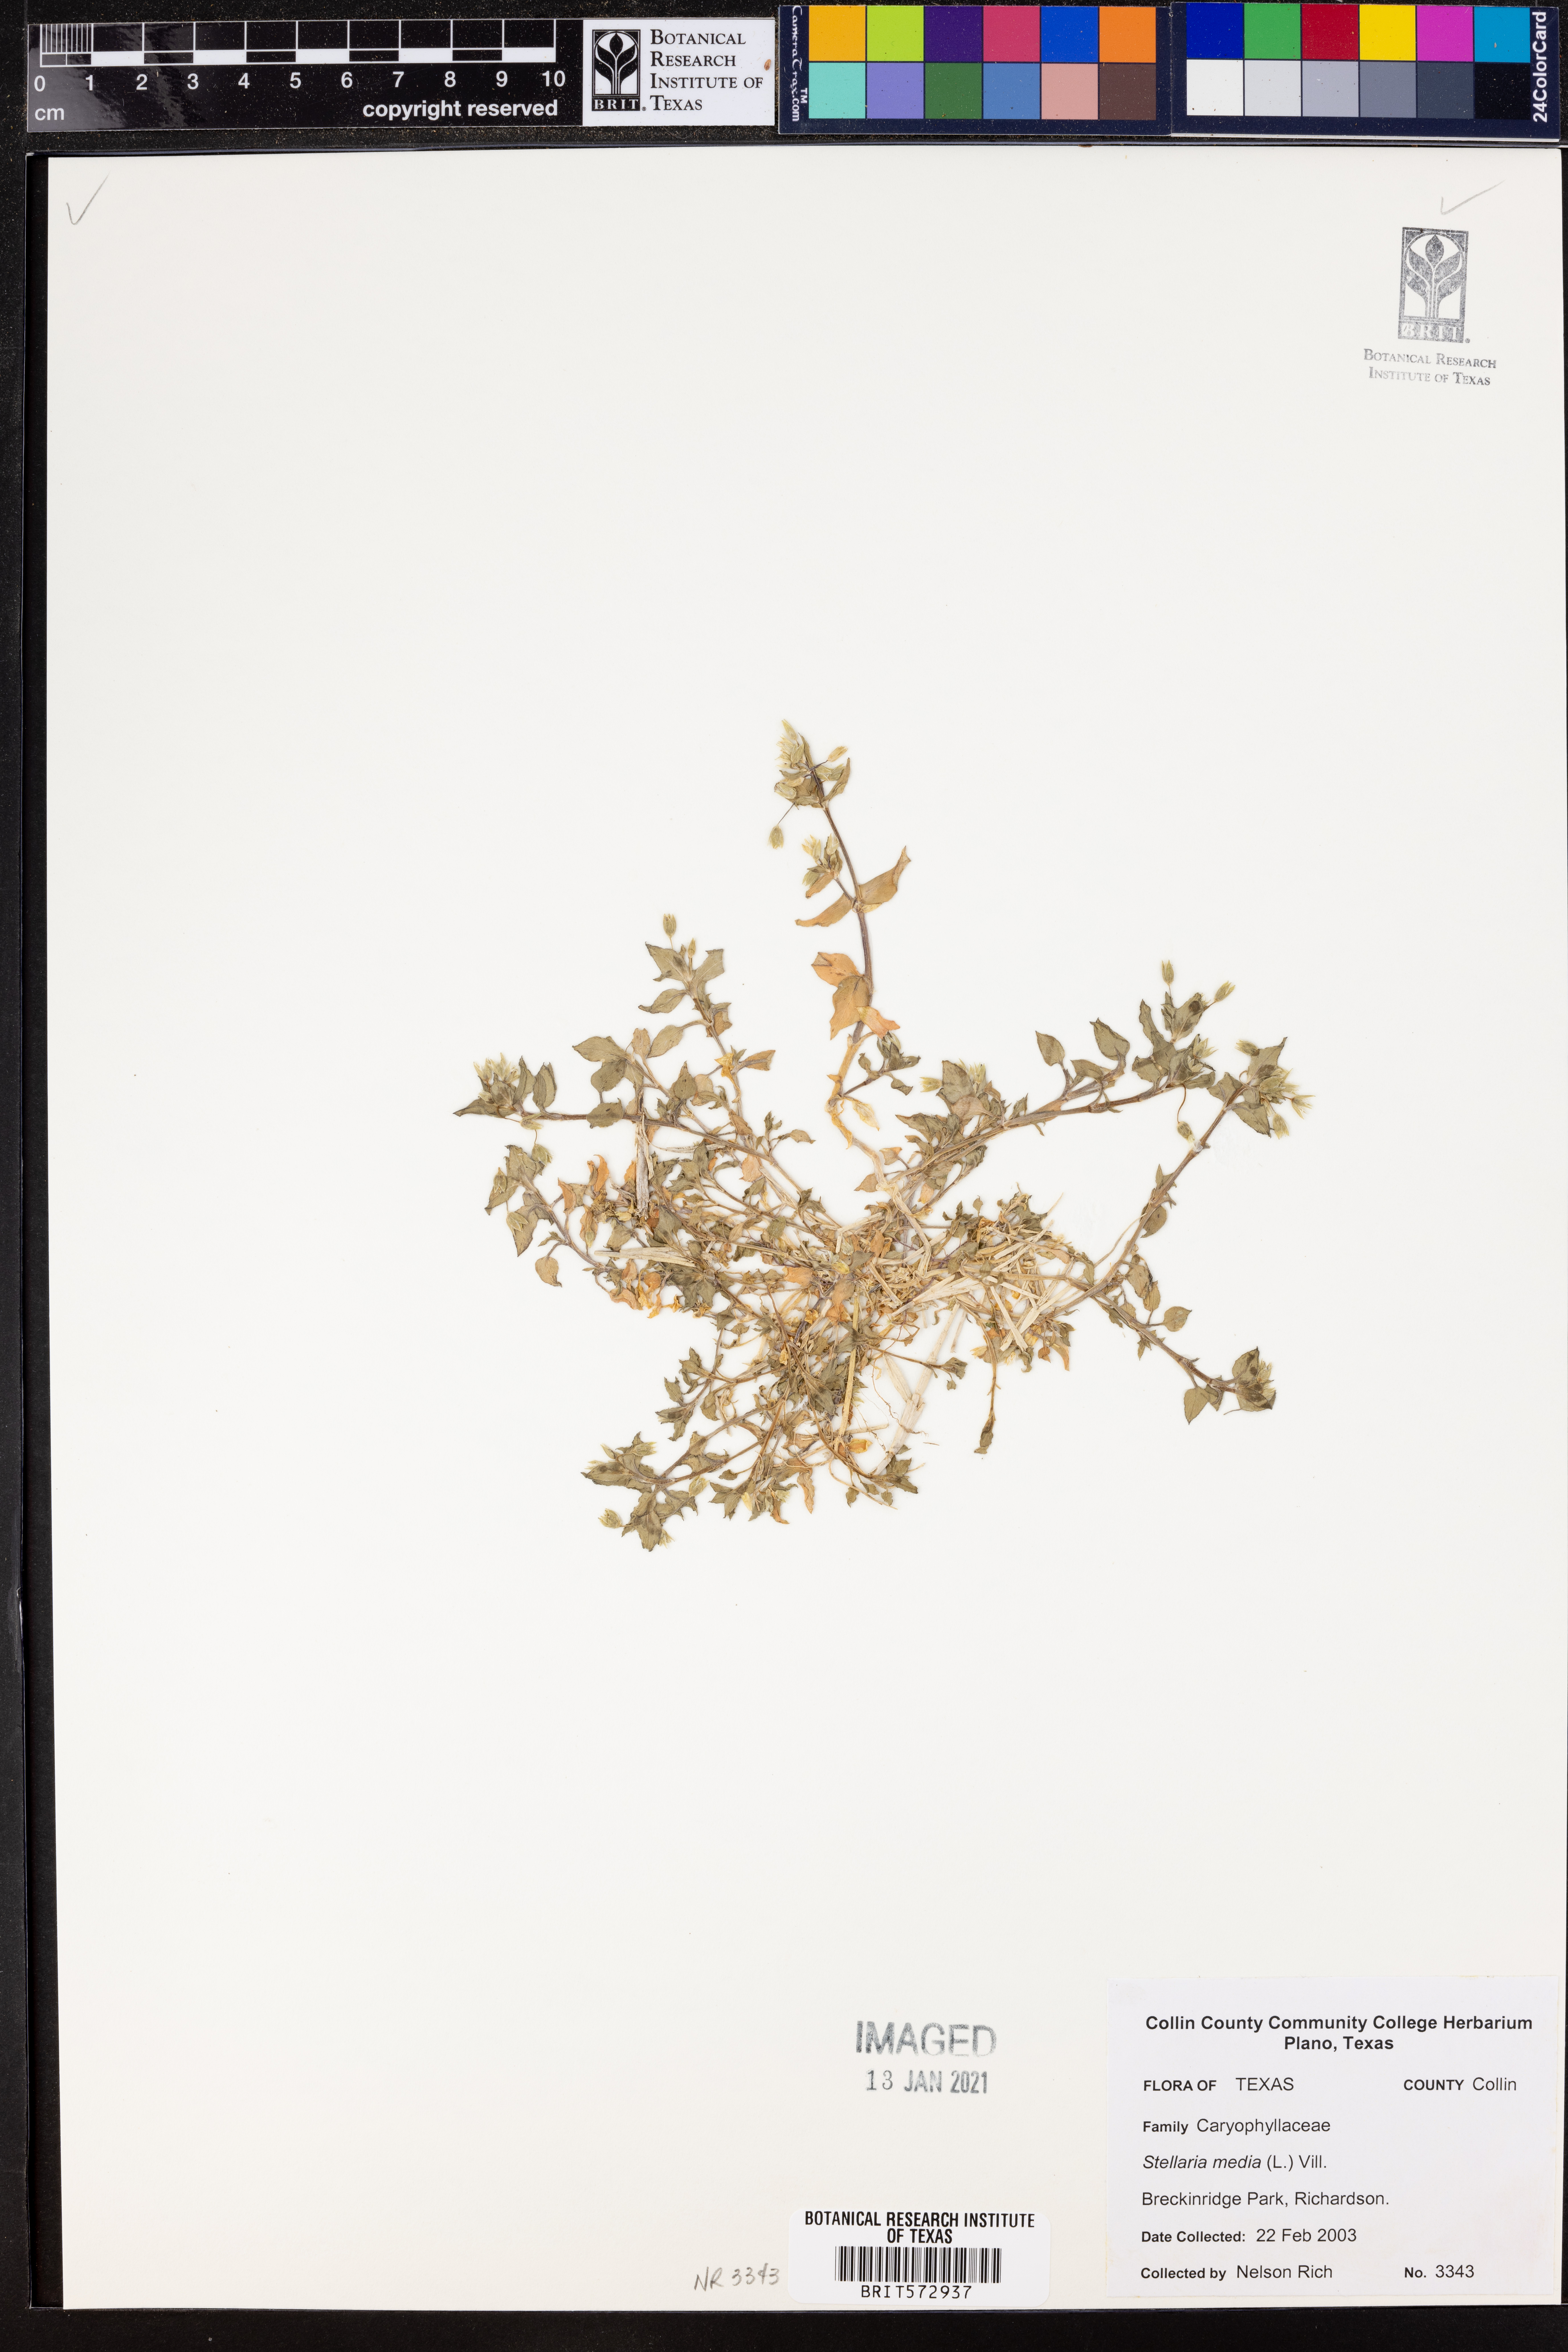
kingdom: Plantae
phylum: Tracheophyta
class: Magnoliopsida
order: Caryophyllales
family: Caryophyllaceae
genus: Stellaria
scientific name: Stellaria media
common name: Common chickweed
